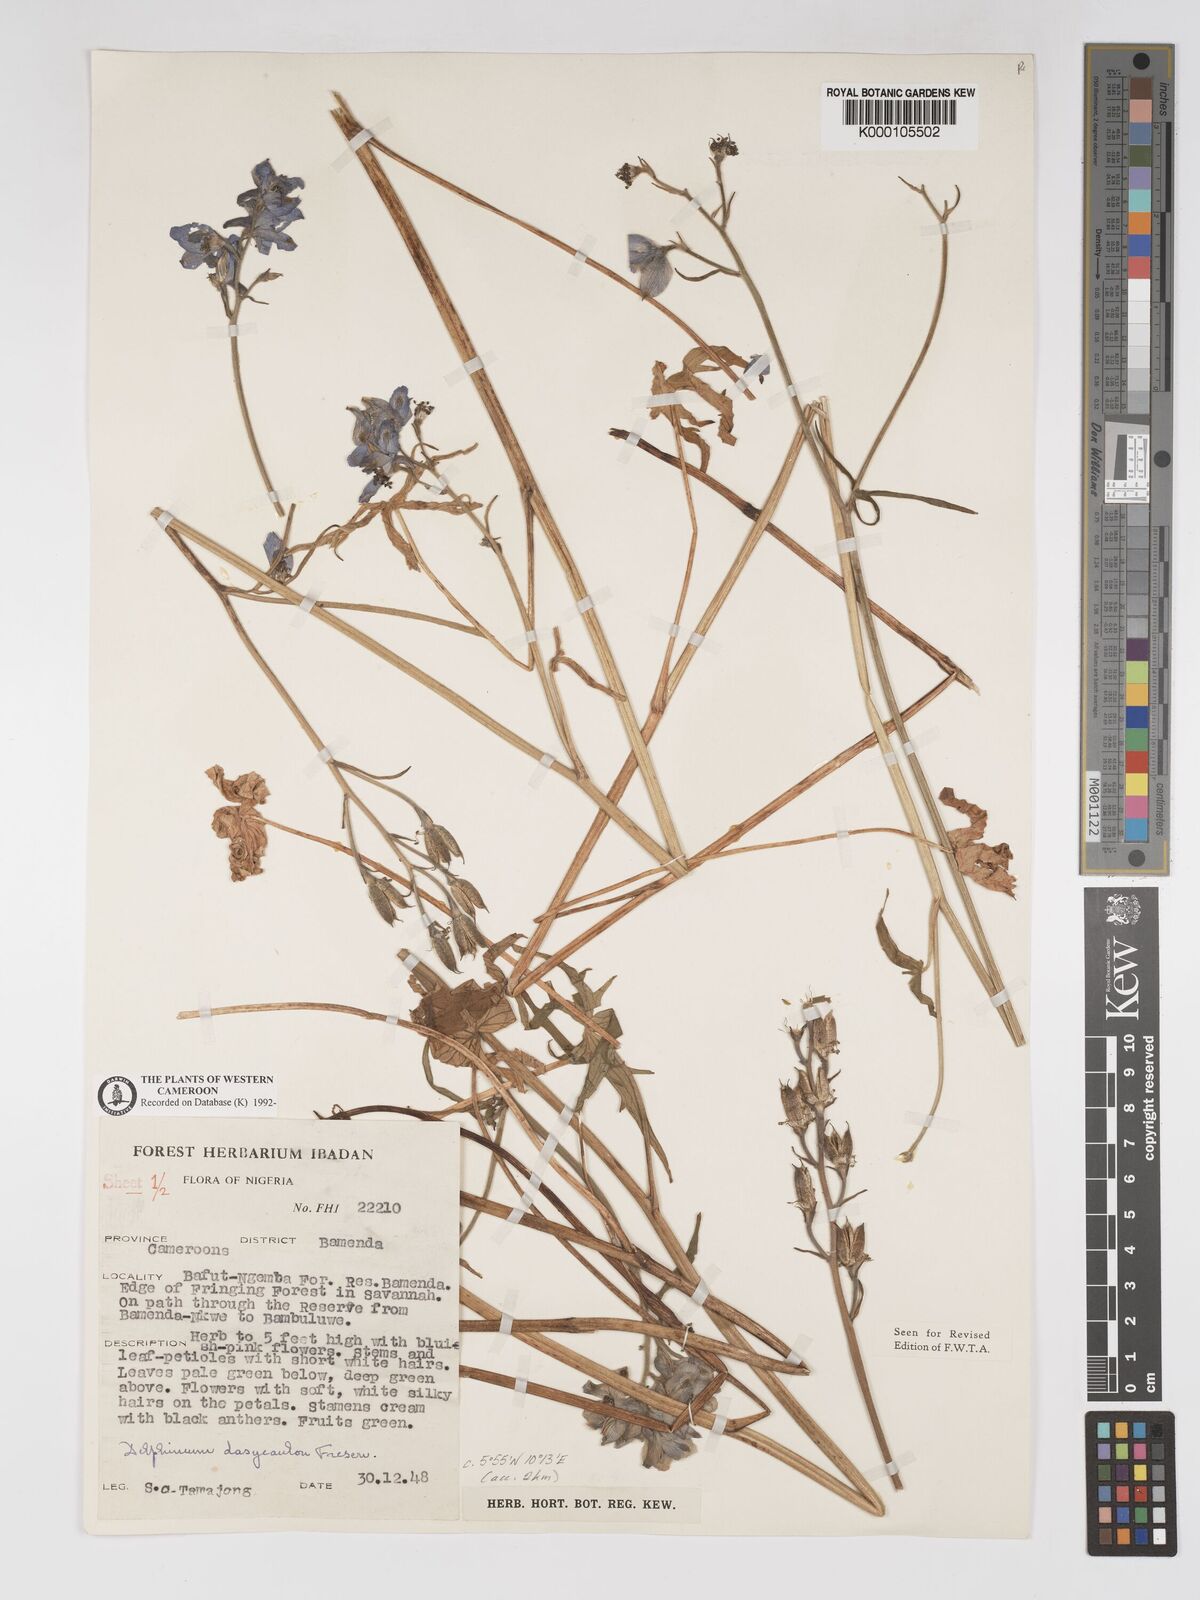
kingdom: Plantae
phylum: Tracheophyta
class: Magnoliopsida
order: Ranunculales
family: Ranunculaceae
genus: Delphinium
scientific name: Delphinium dasycaulon
